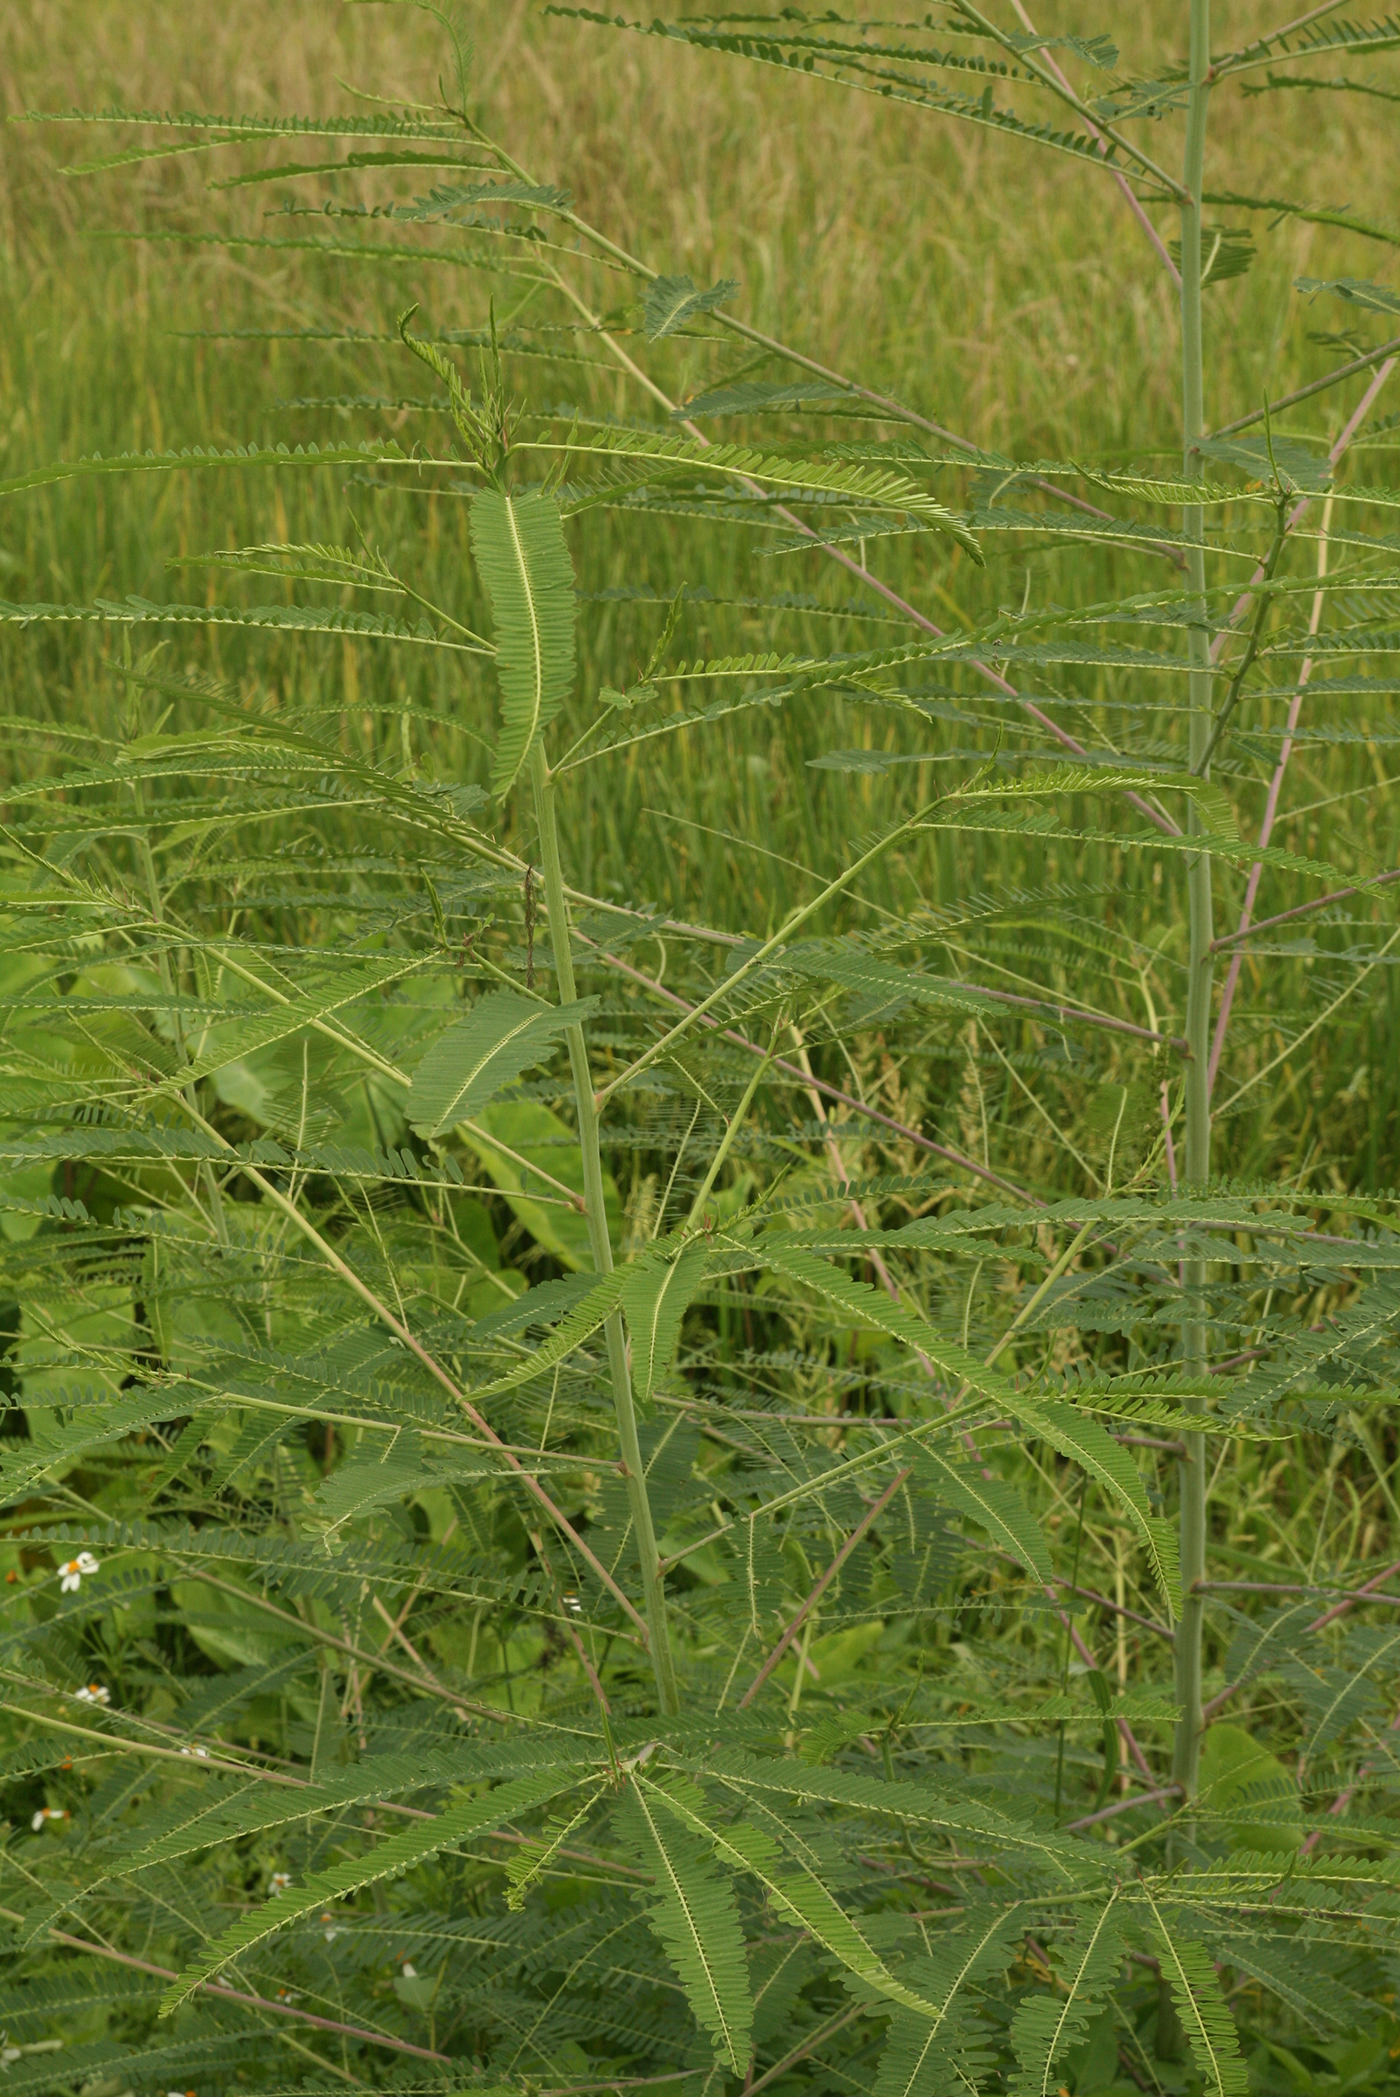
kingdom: Plantae
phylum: Tracheophyta
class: Magnoliopsida
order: Fabales
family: Fabaceae
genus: Sesbania
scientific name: Sesbania bispinosa
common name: Sesbania pea
